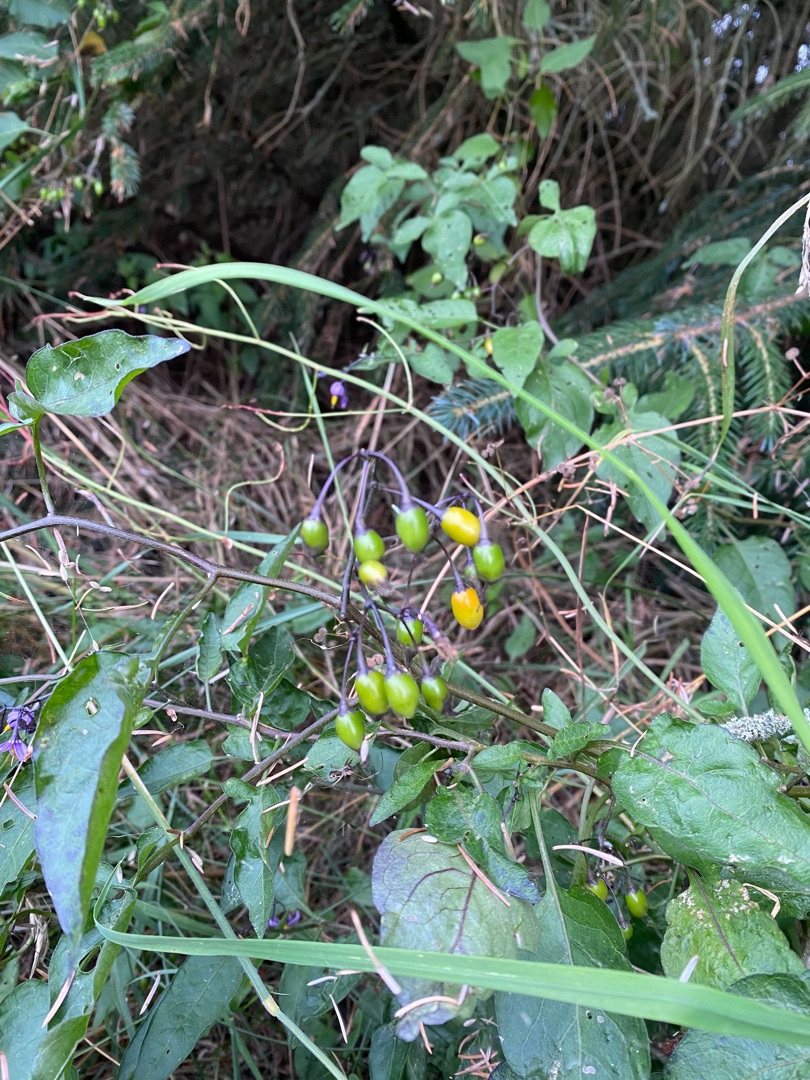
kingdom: Plantae
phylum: Tracheophyta
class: Magnoliopsida
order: Solanales
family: Solanaceae
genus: Solanum
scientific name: Solanum dulcamara
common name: Bittersød natskygge
